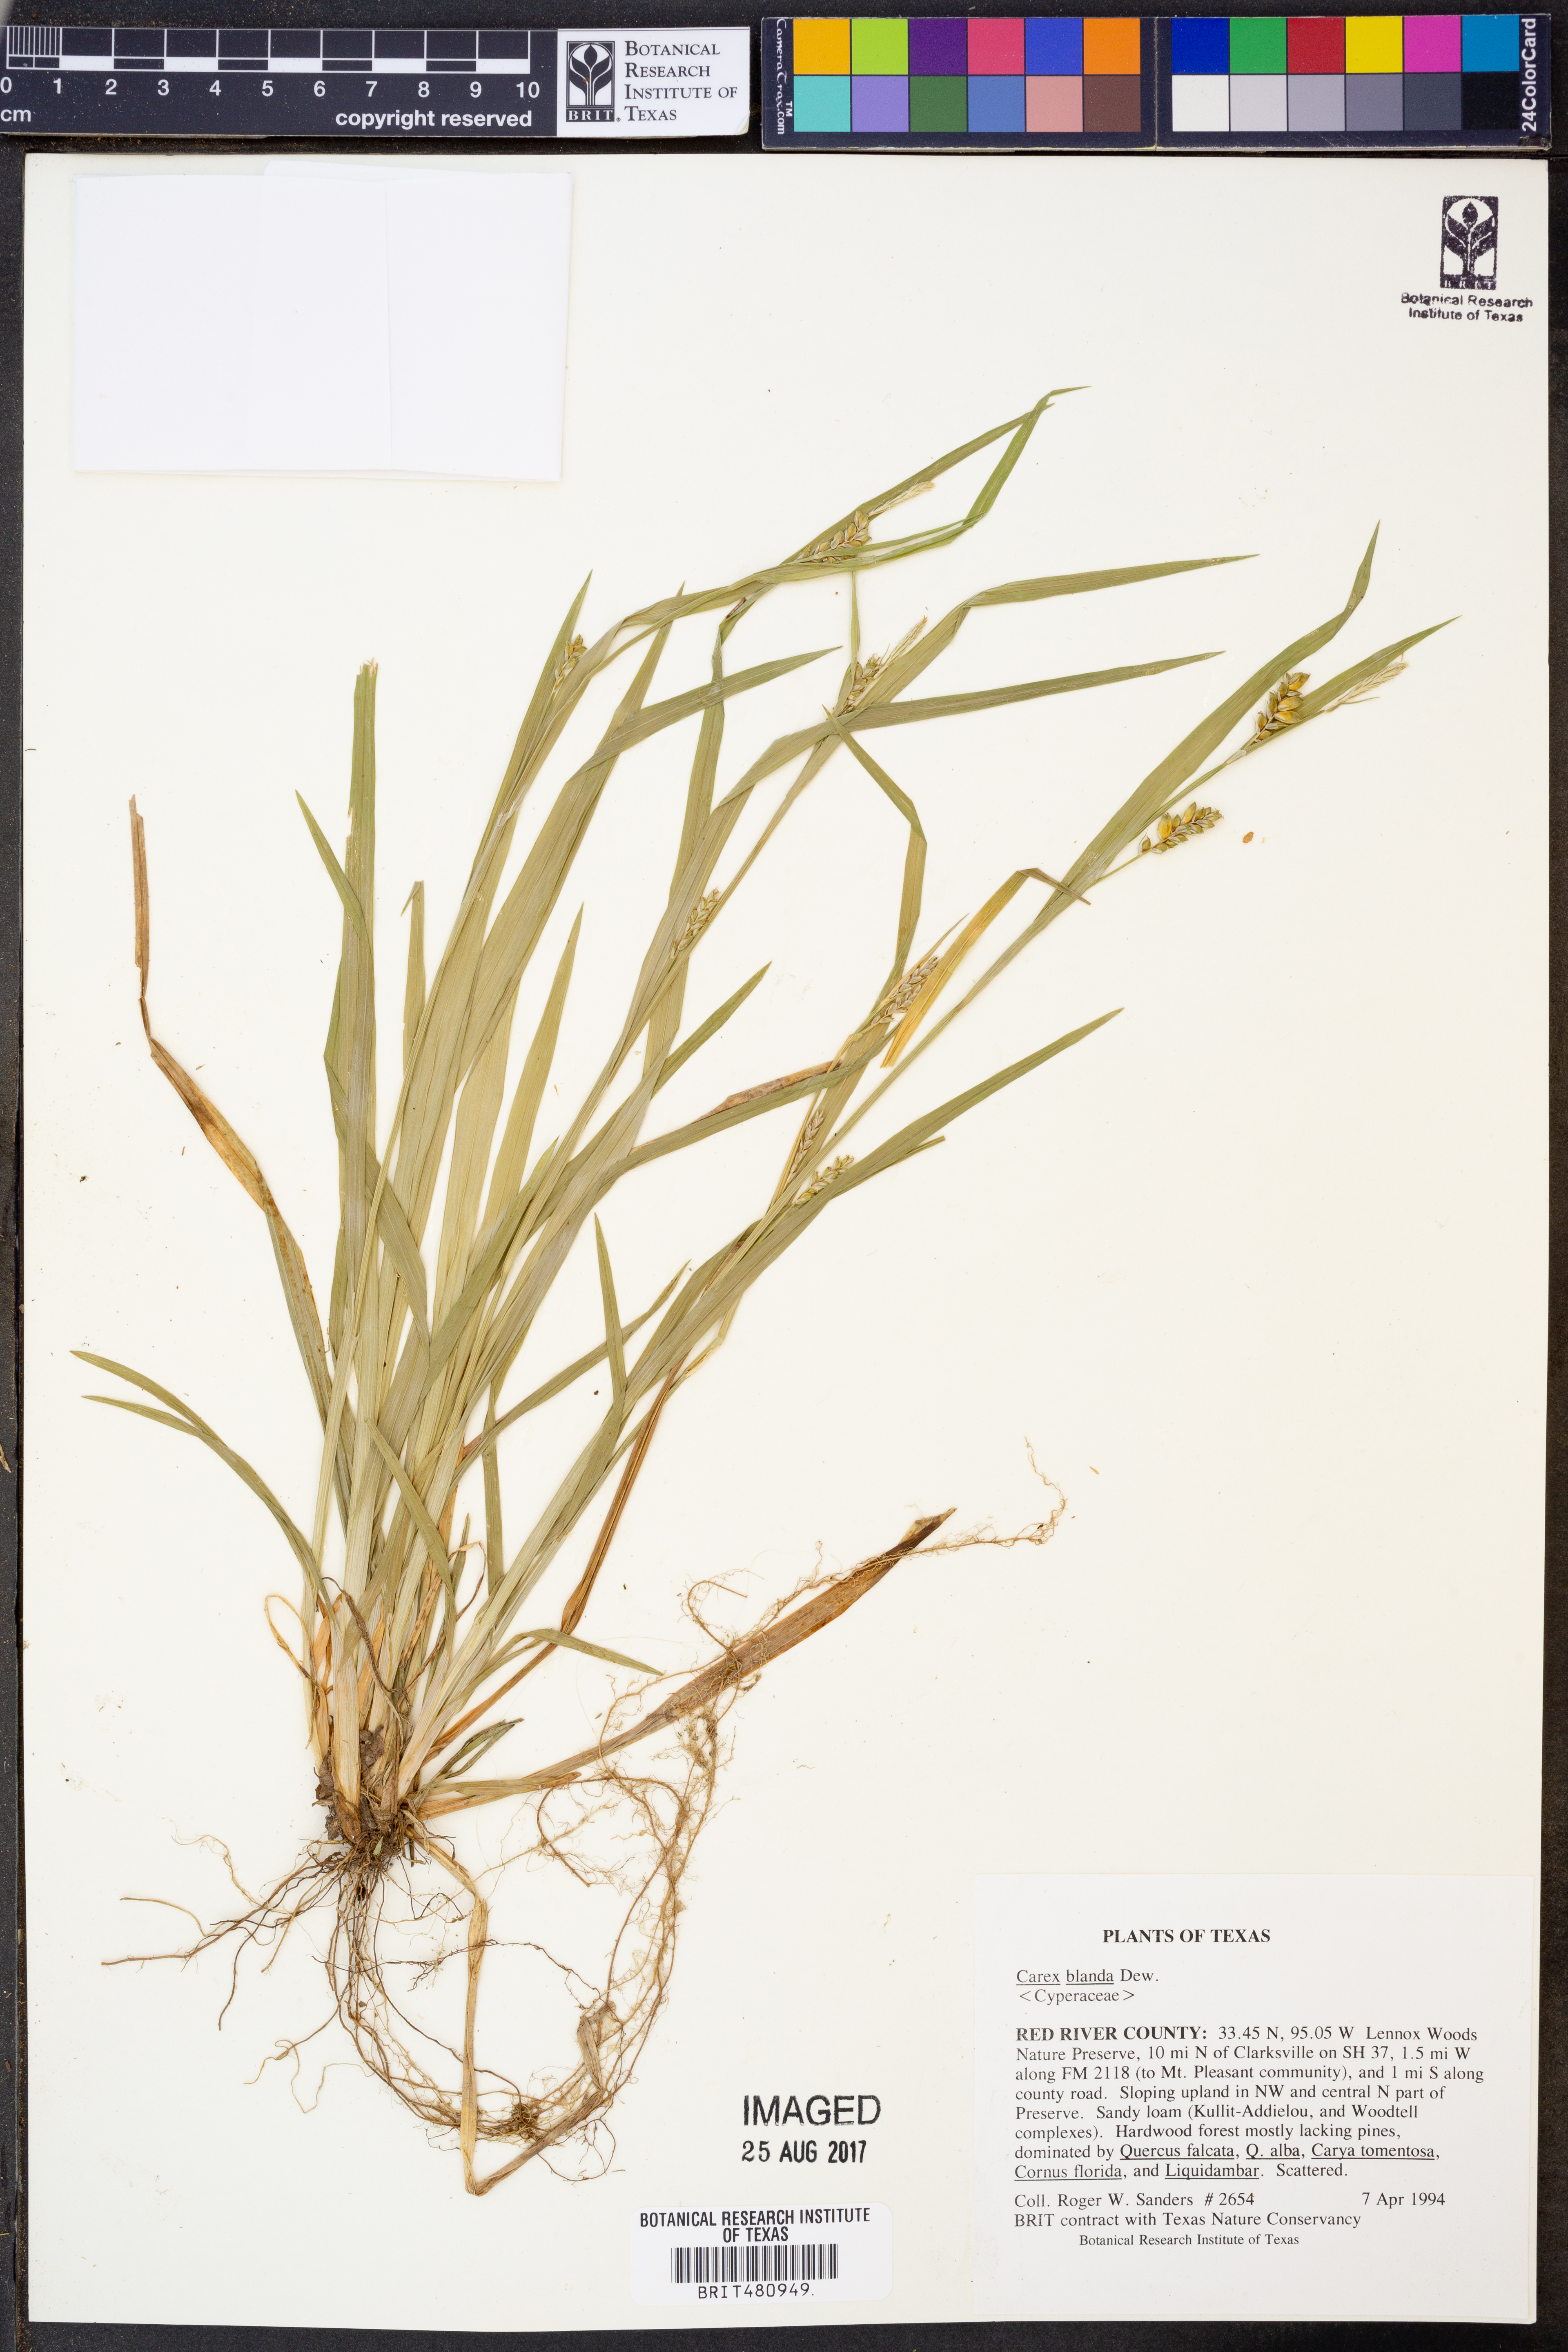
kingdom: Plantae
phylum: Tracheophyta
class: Liliopsida
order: Poales
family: Cyperaceae
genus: Carex
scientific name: Carex blanda
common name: Bland sedge
